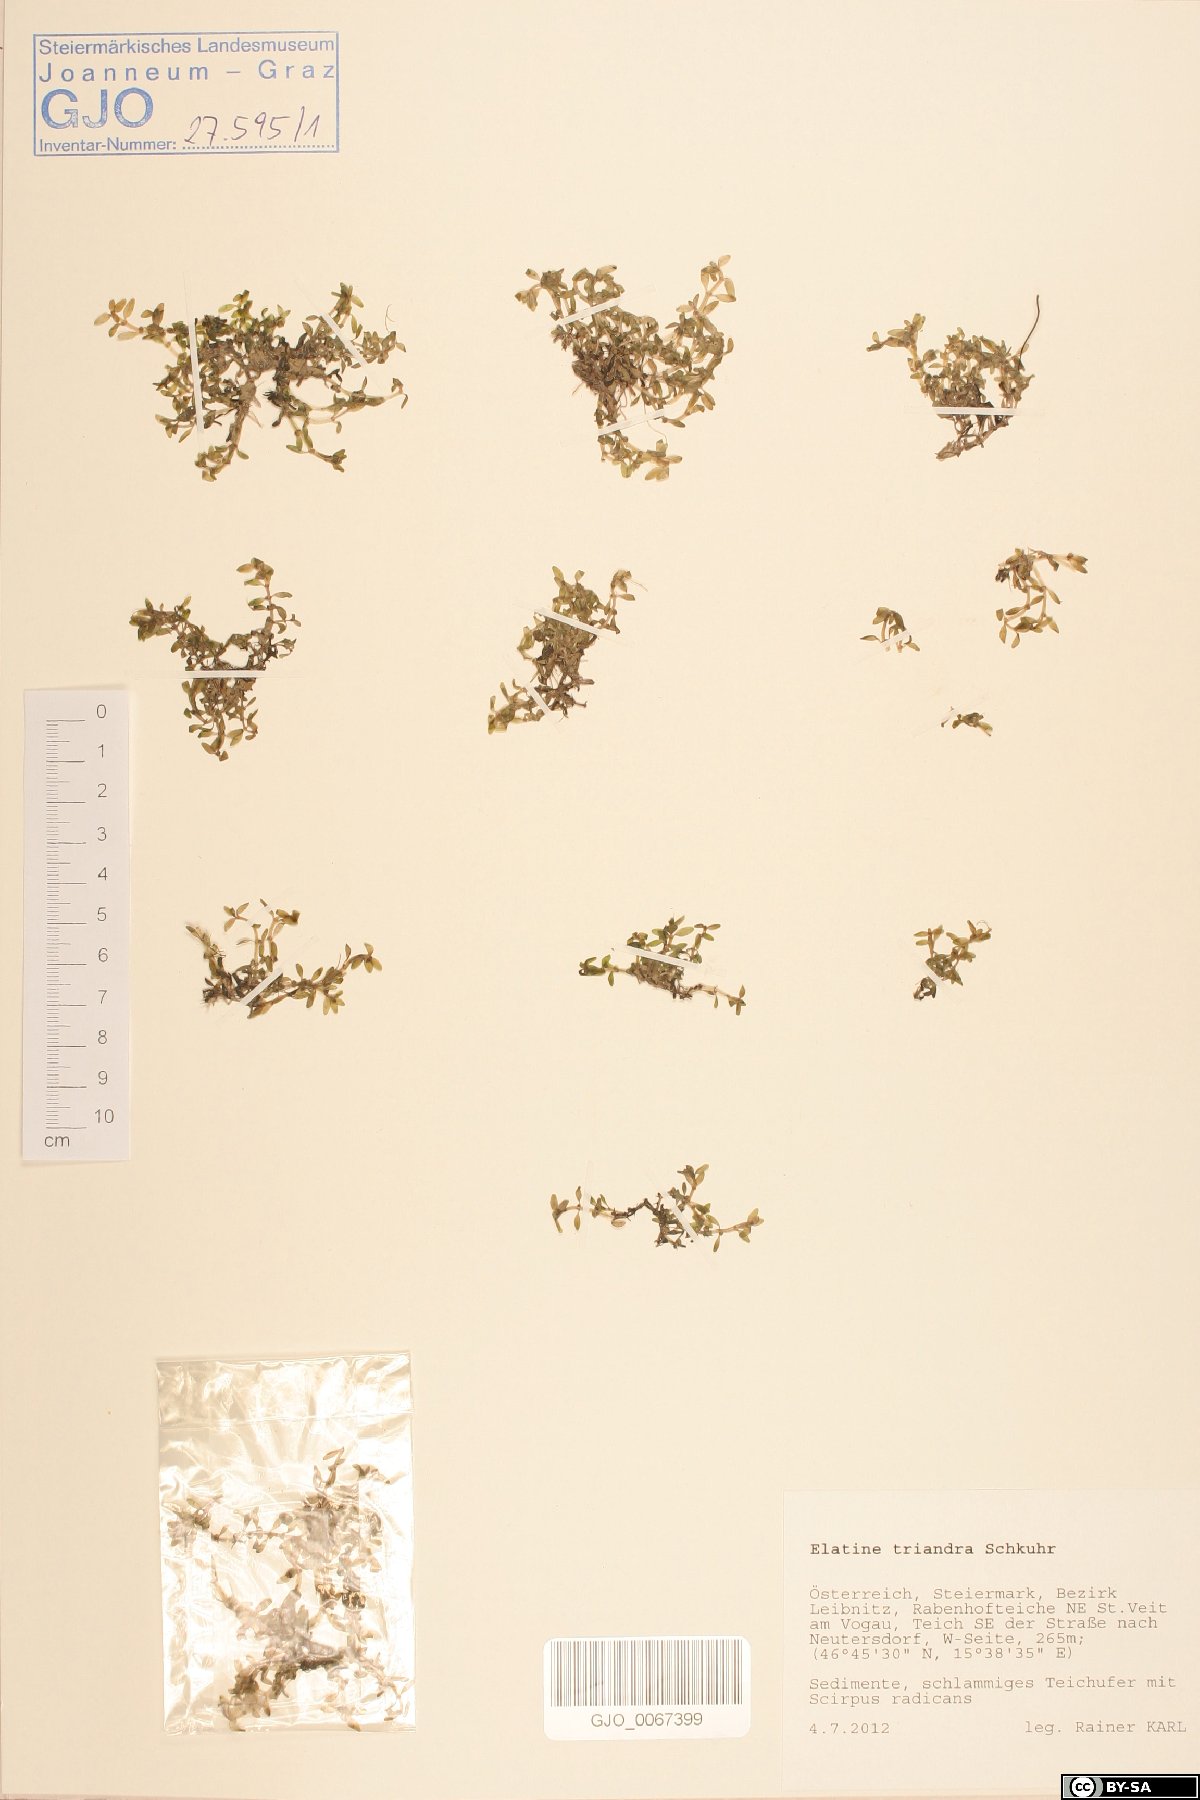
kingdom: Plantae
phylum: Tracheophyta
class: Magnoliopsida
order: Malpighiales
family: Elatinaceae
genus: Elatine
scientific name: Elatine triandra
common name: Three-stamened waterwort
